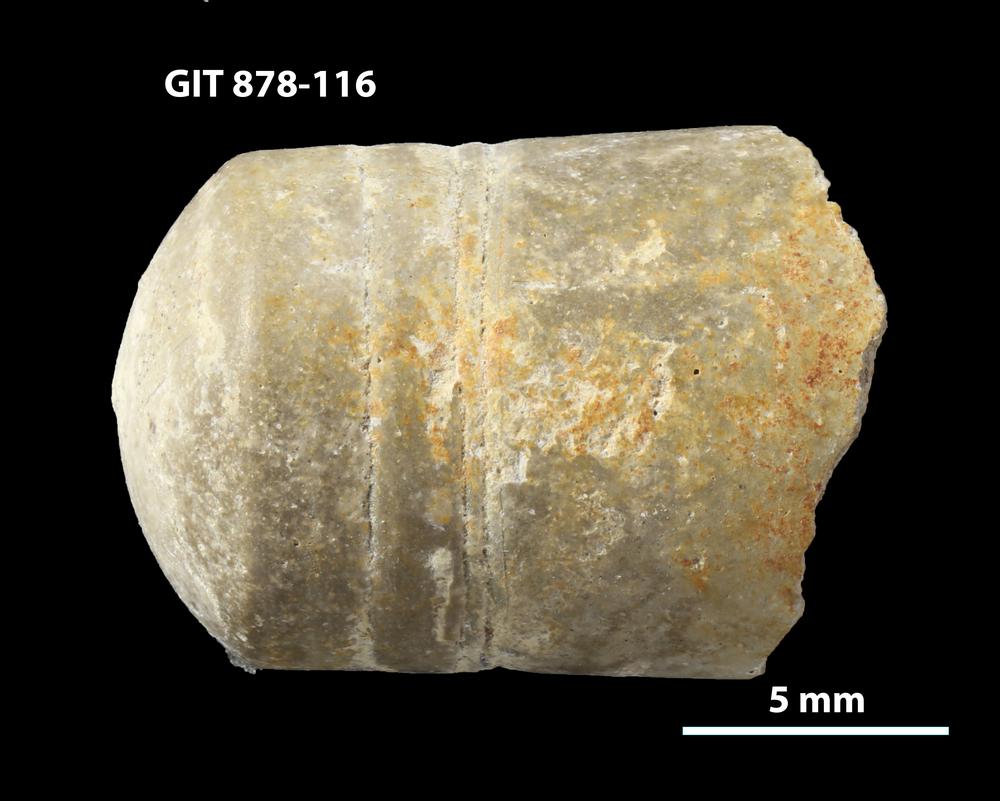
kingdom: Animalia
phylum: Mollusca
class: Cephalopoda
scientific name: Cephalopoda
